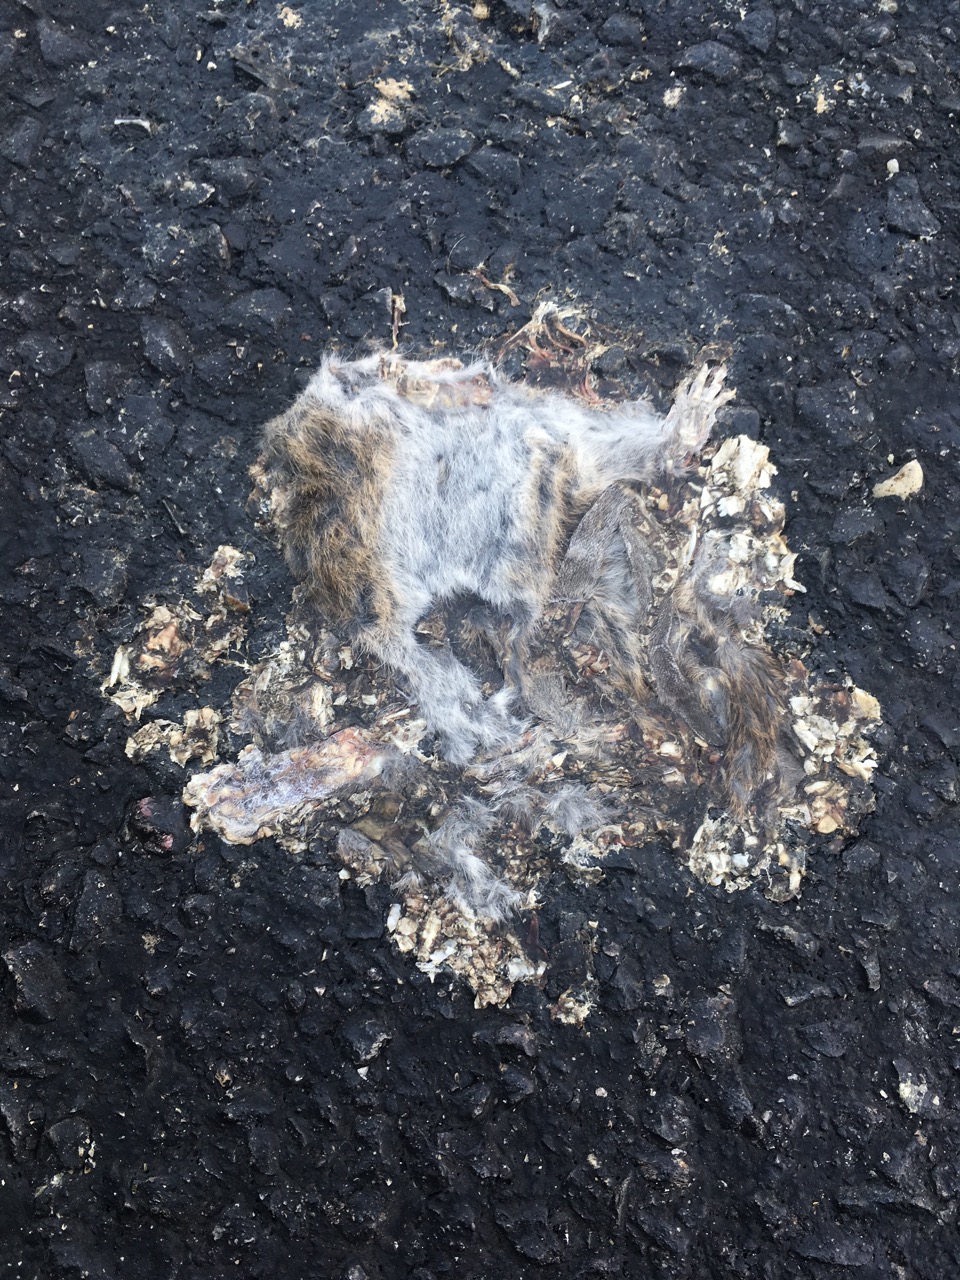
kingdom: Animalia
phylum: Chordata
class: Mammalia
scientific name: Mammalia
